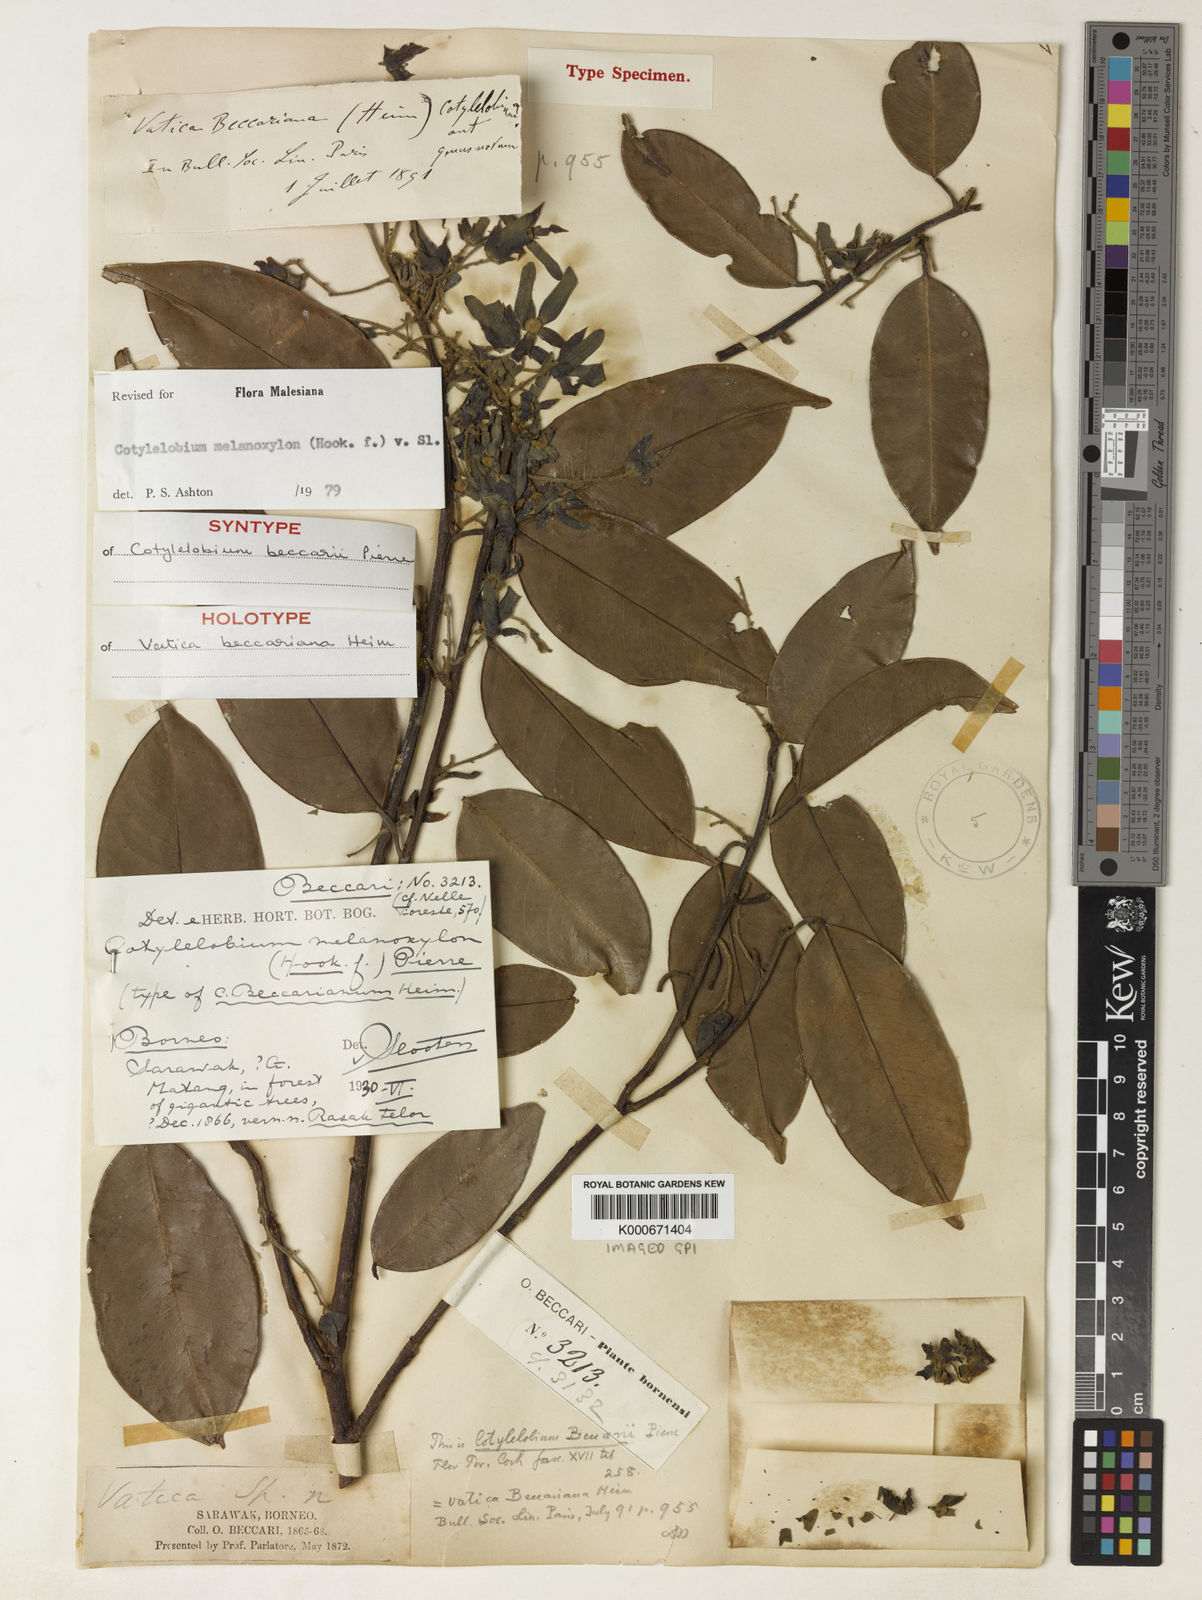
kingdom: Plantae
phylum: Tracheophyta
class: Magnoliopsida
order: Malvales
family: Dipterocarpaceae
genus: Cotylelobium
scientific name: Cotylelobium melanoxylon
